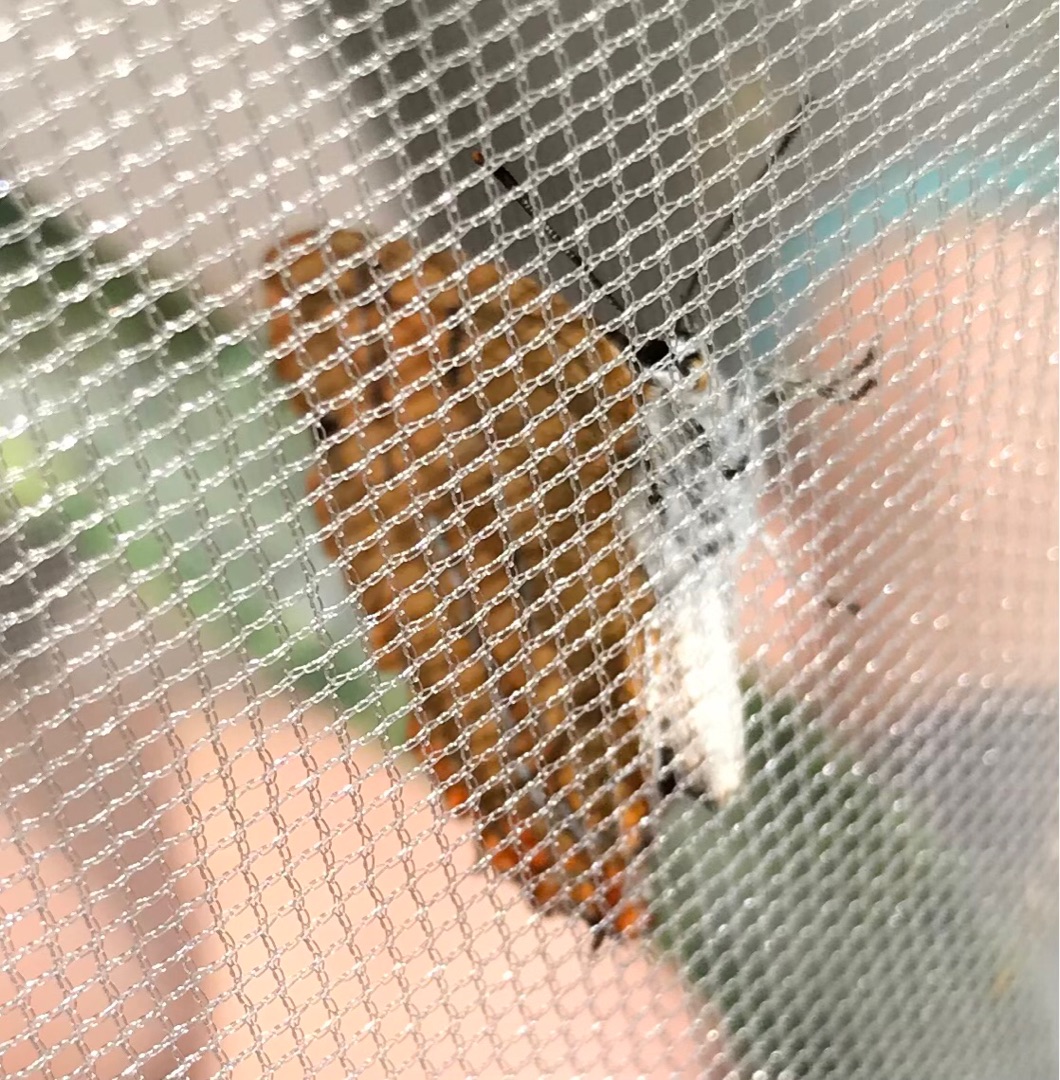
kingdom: Animalia
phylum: Arthropoda
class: Insecta
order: Lepidoptera
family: Lycaenidae
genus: Thecla
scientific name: Thecla betulae
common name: Guldhale
